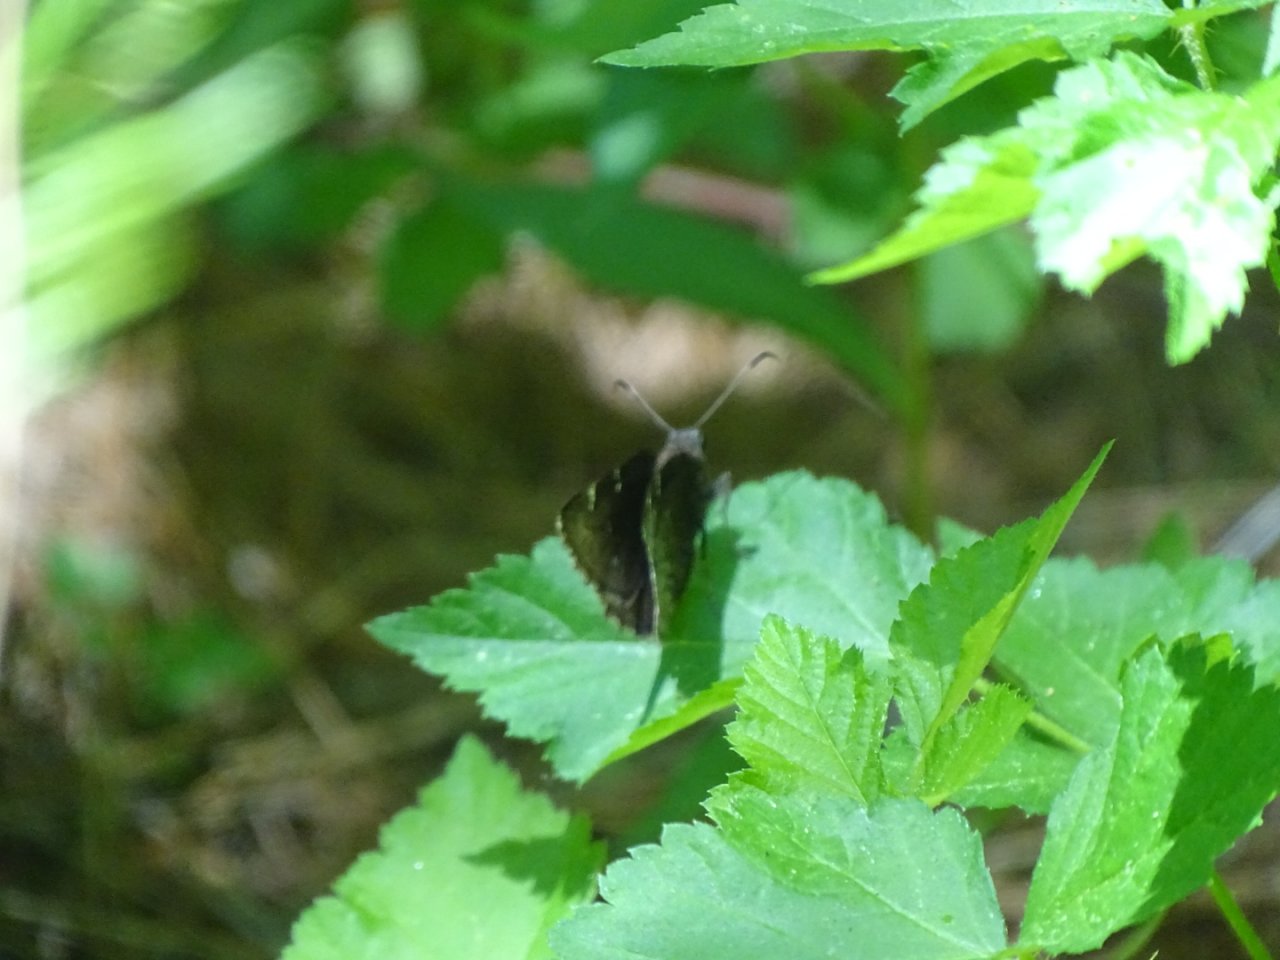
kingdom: Animalia
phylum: Arthropoda
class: Insecta
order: Lepidoptera
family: Hesperiidae
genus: Autochton
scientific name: Autochton
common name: Northern Cloudywing
